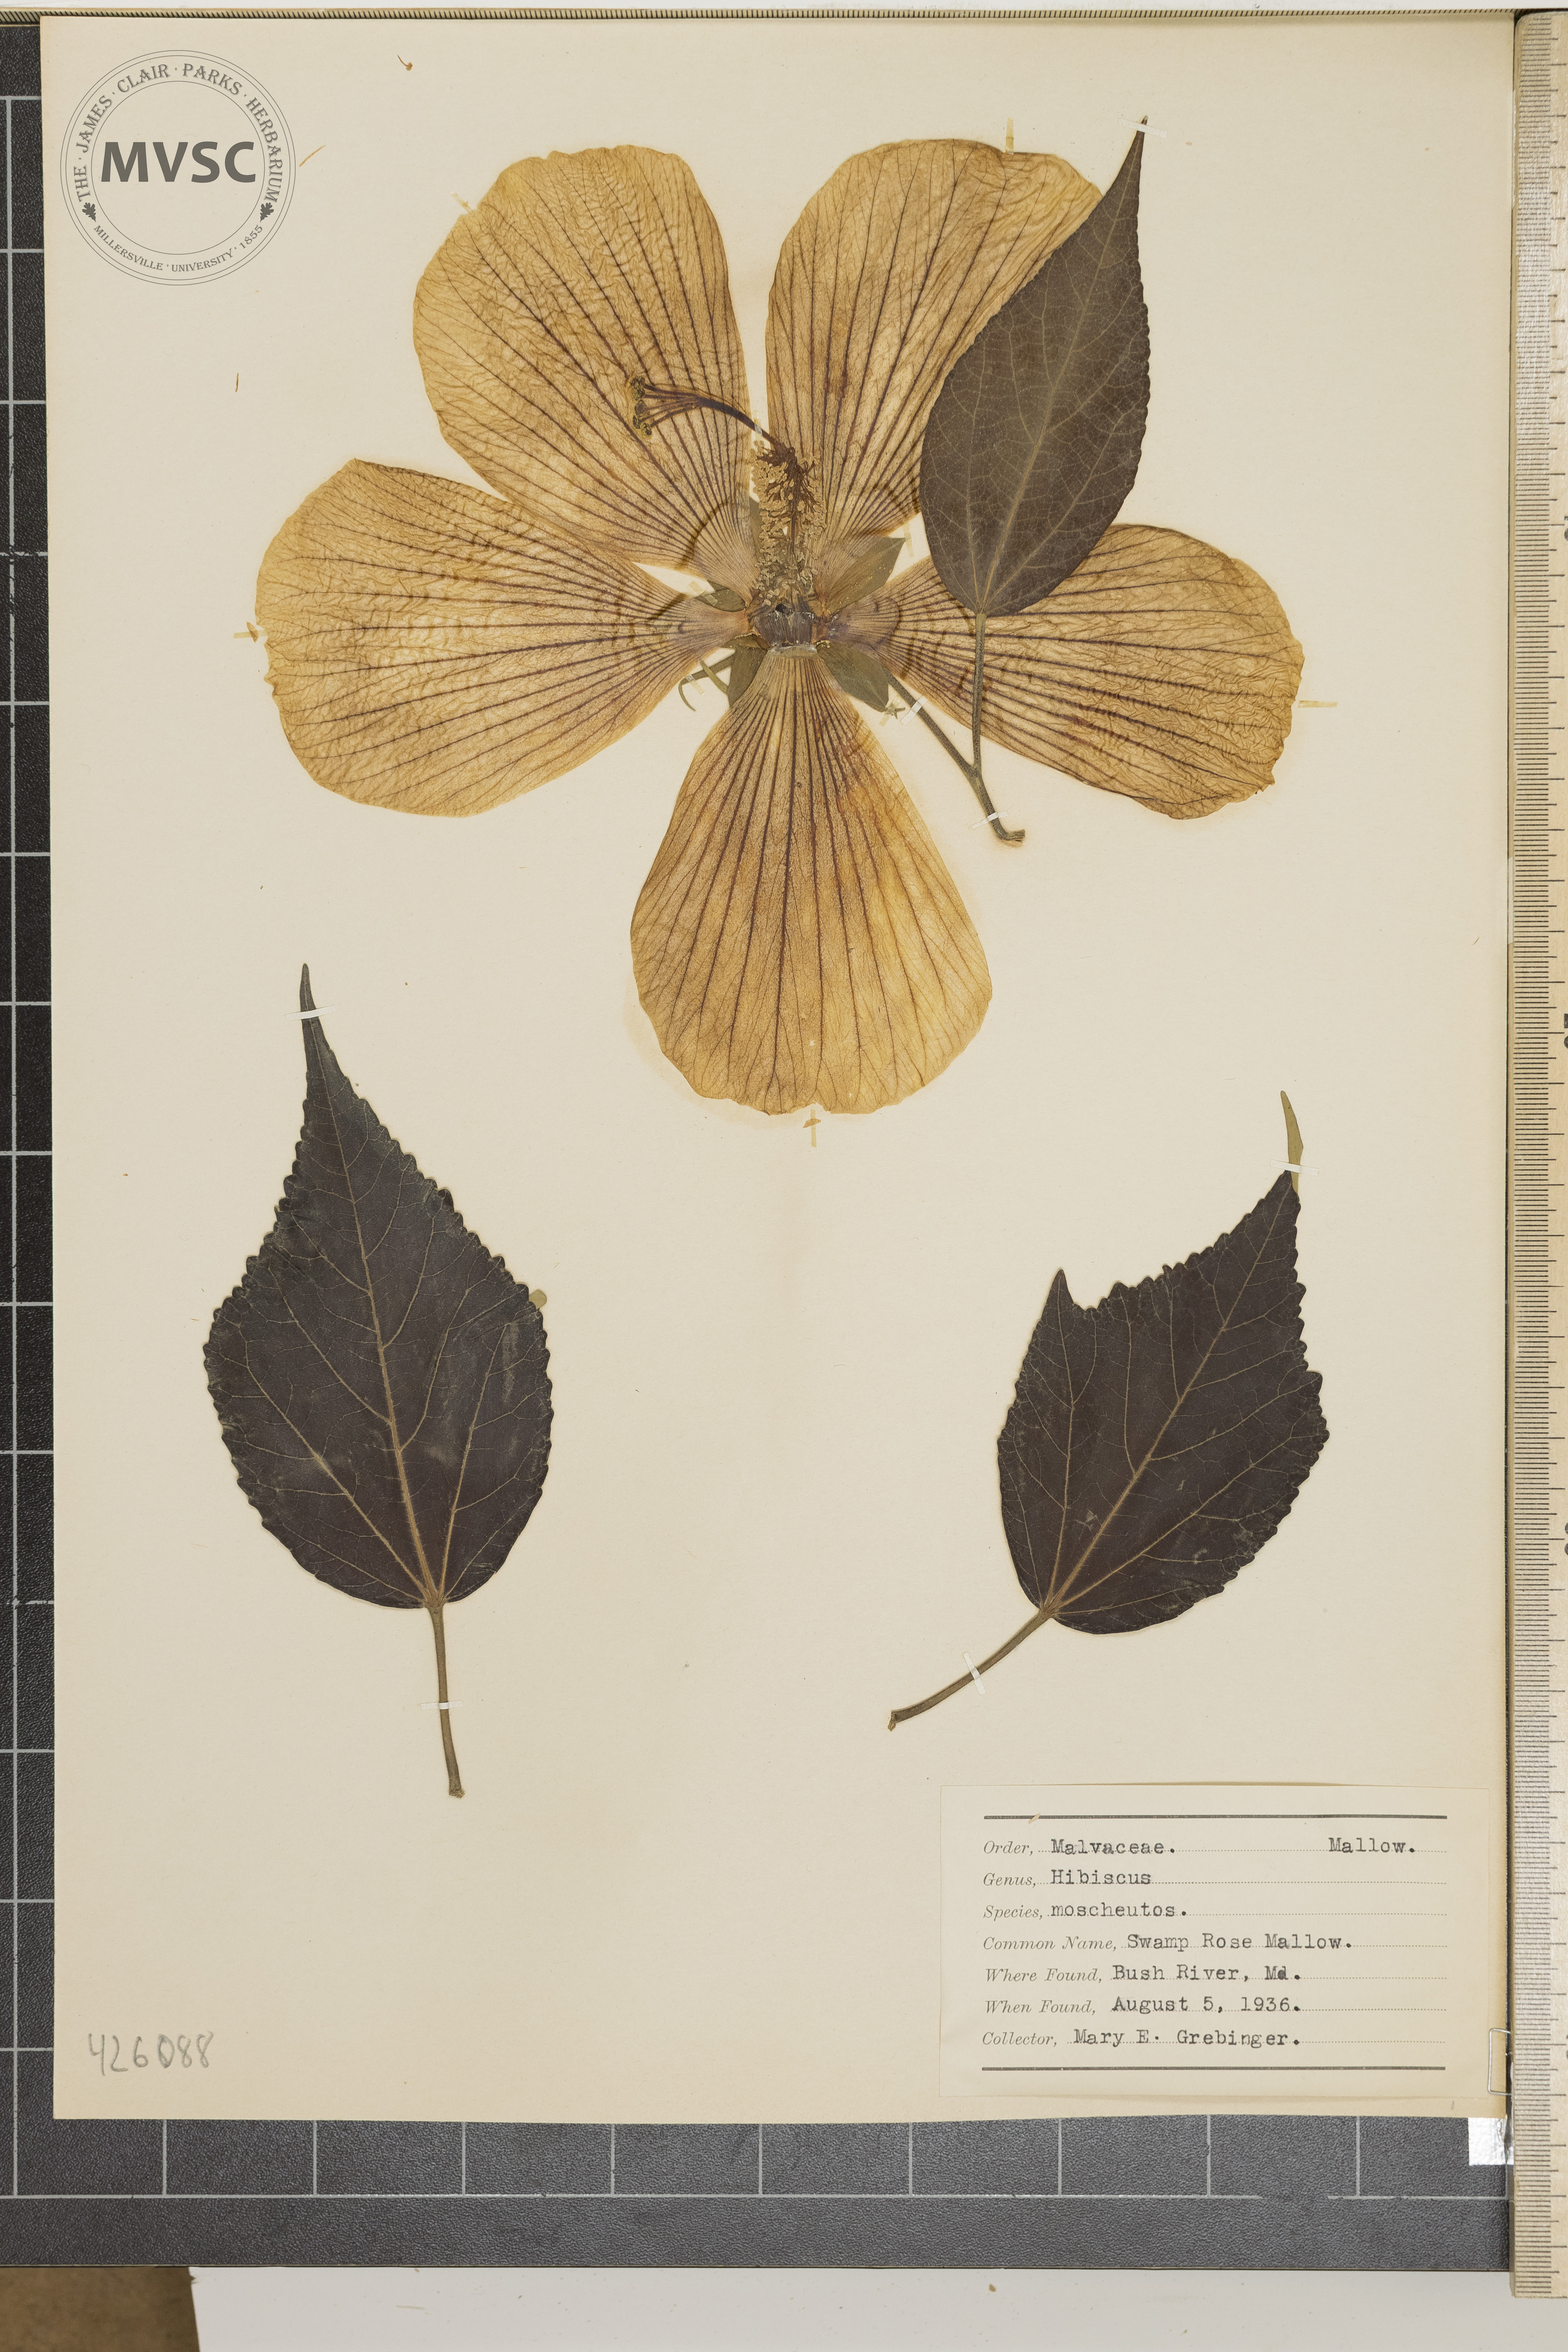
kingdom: Plantae
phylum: Tracheophyta
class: Magnoliopsida
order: Malvales
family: Malvaceae
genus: Hibiscus
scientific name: Hibiscus moscheutos
